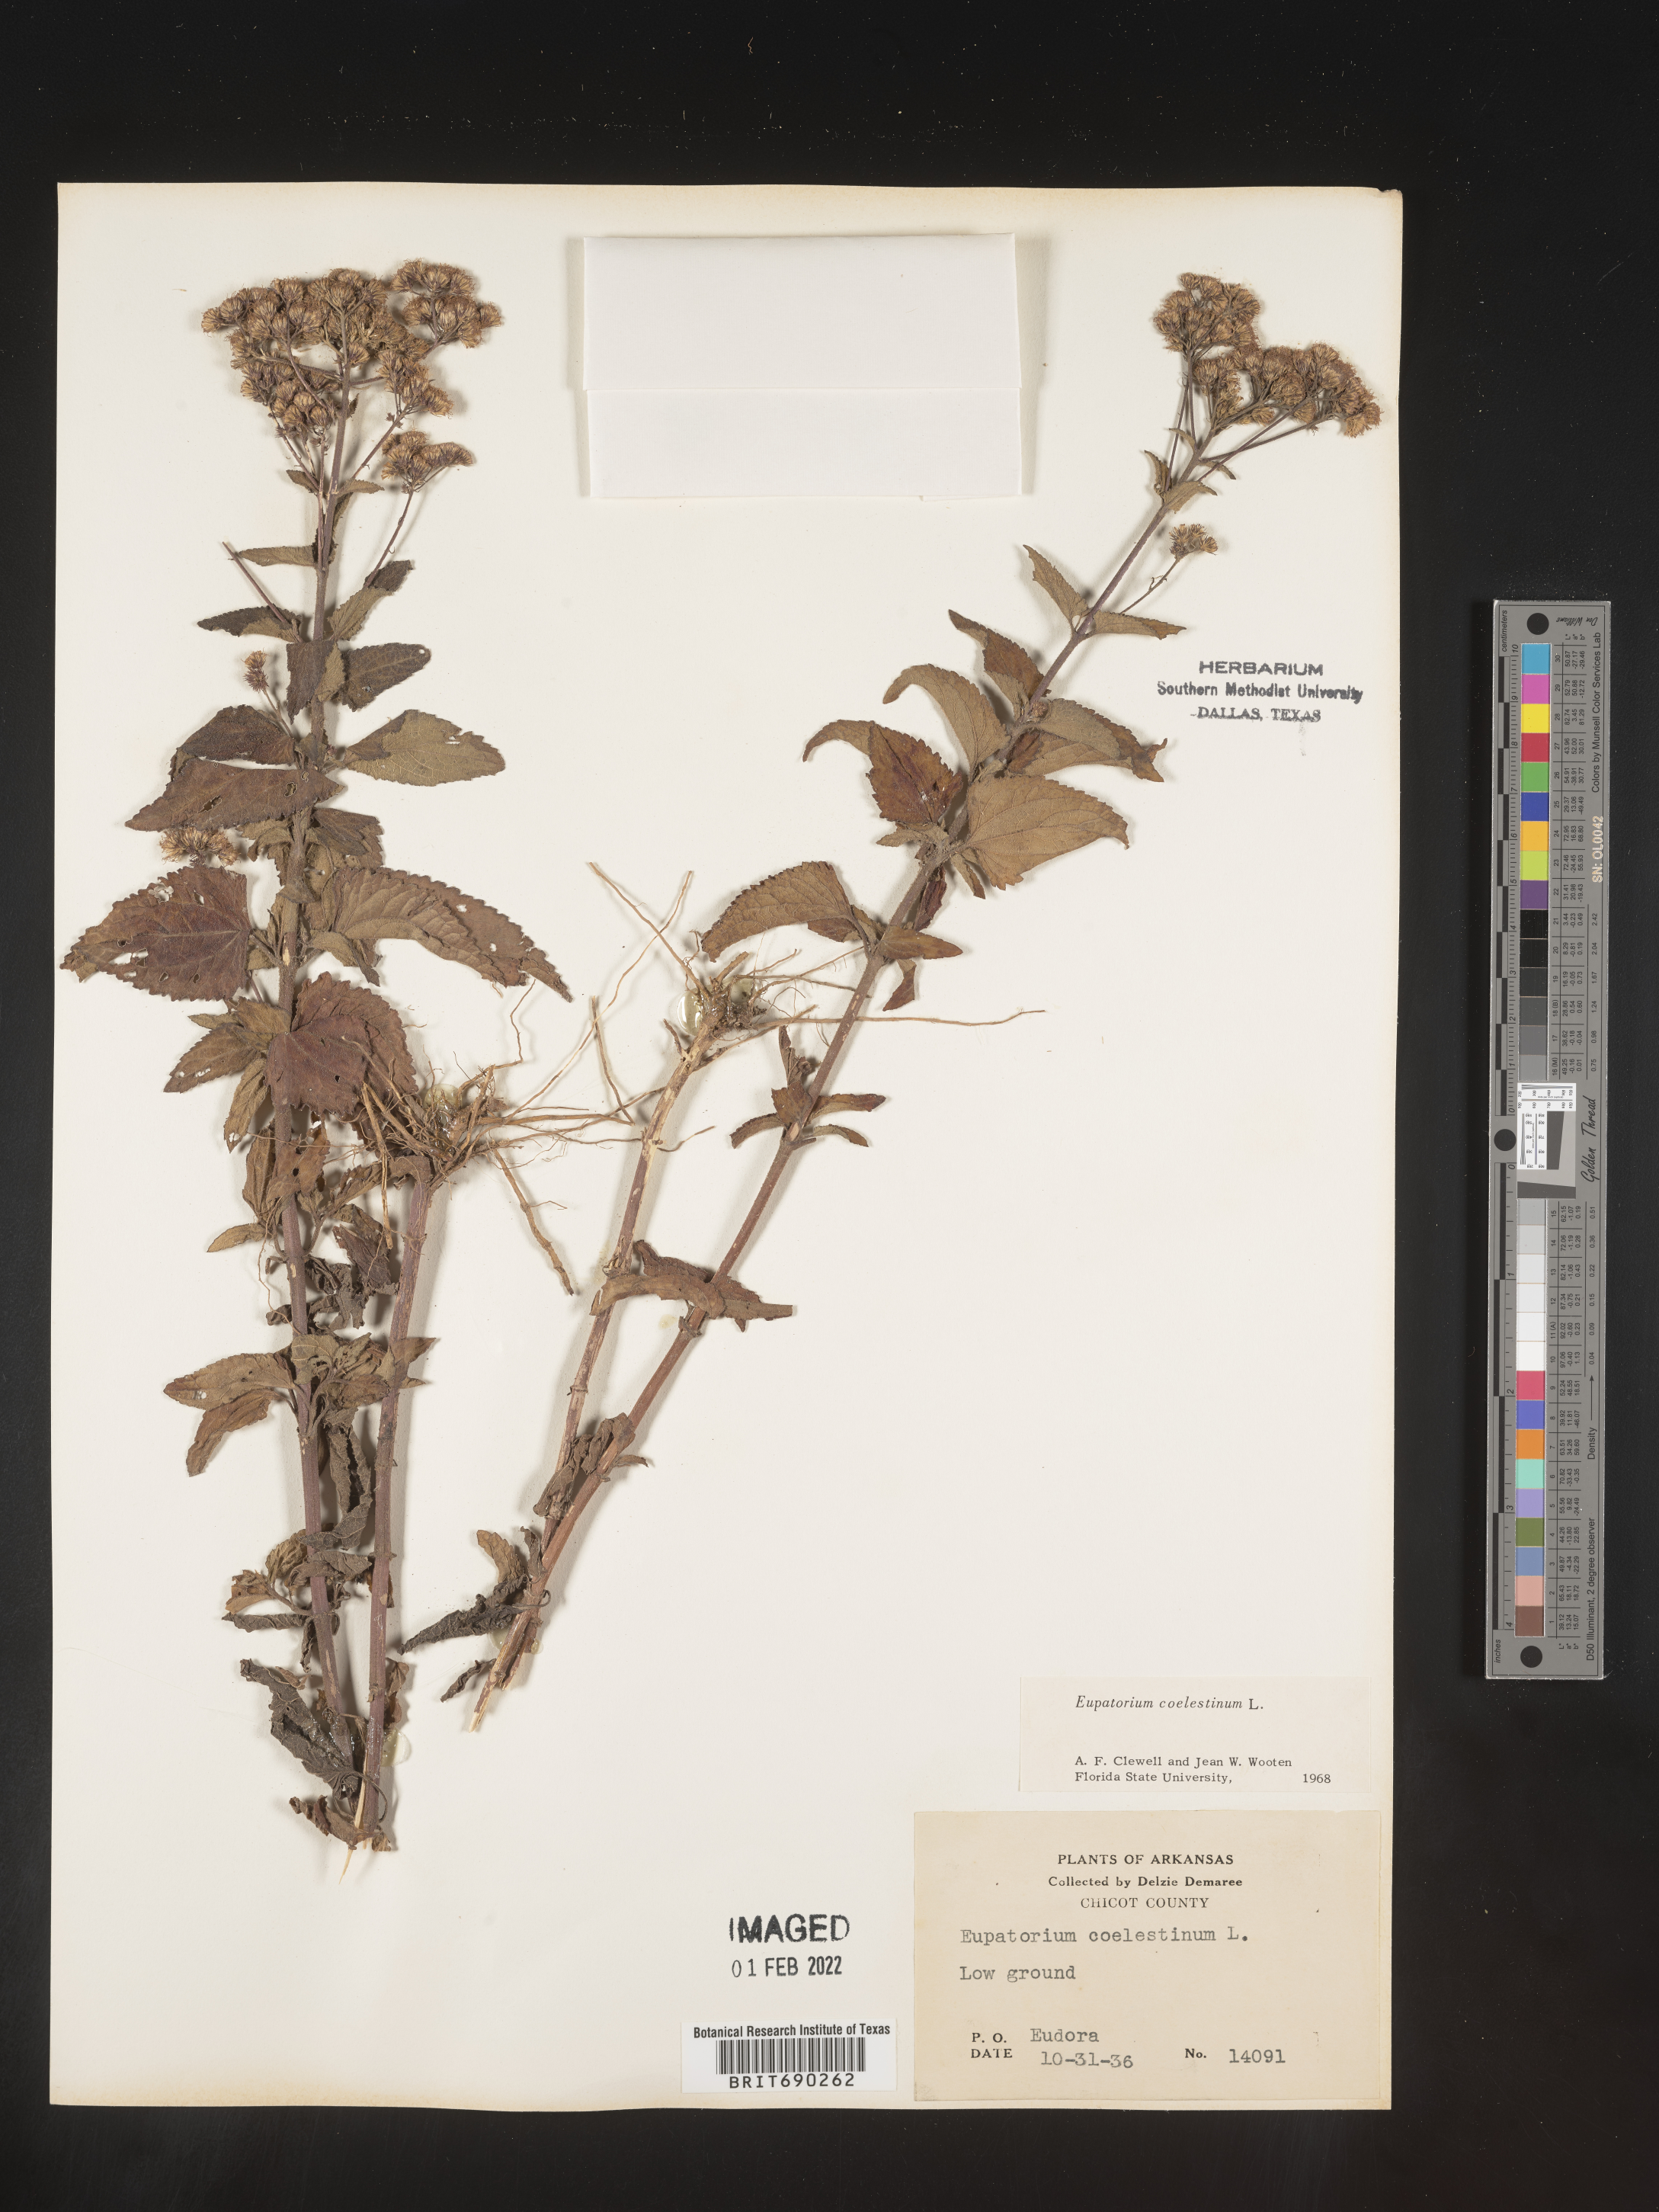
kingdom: Plantae
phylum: Tracheophyta
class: Magnoliopsida
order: Asterales
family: Asteraceae
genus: Conoclinium
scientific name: Conoclinium coelestinum
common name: Blue mistflower
